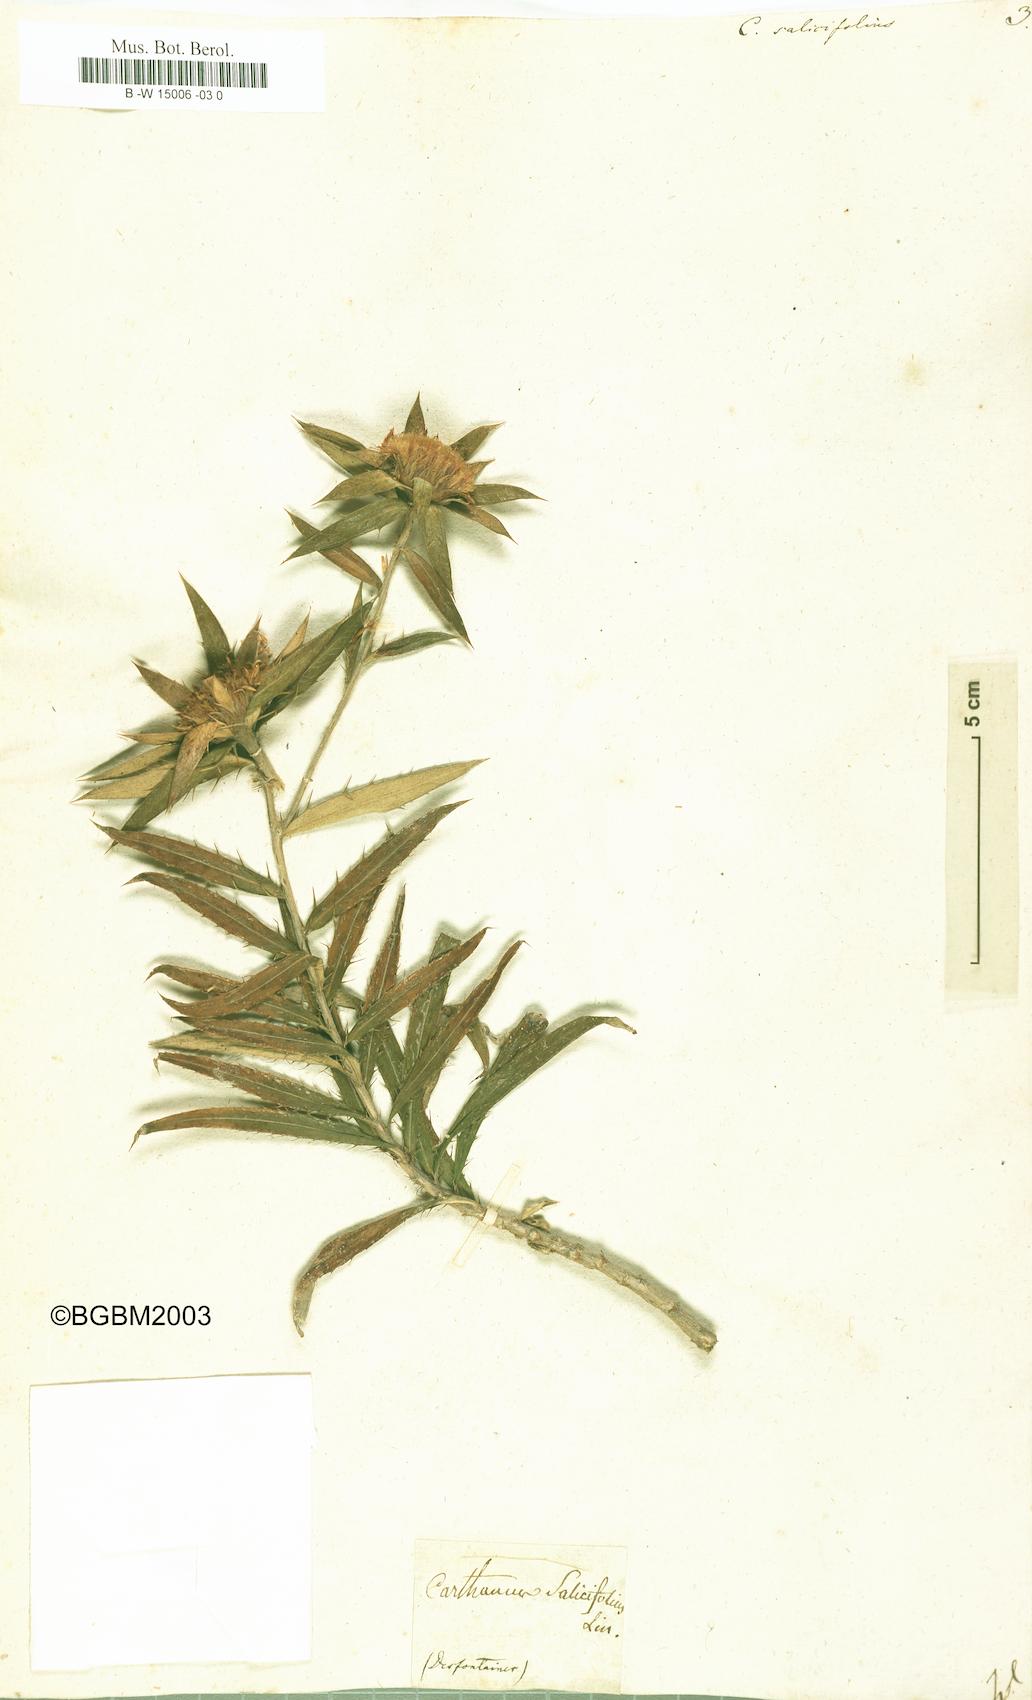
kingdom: Plantae
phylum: Tracheophyta
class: Magnoliopsida
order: Asterales
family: Asteraceae
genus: Carlina
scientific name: Carlina salicifolia
